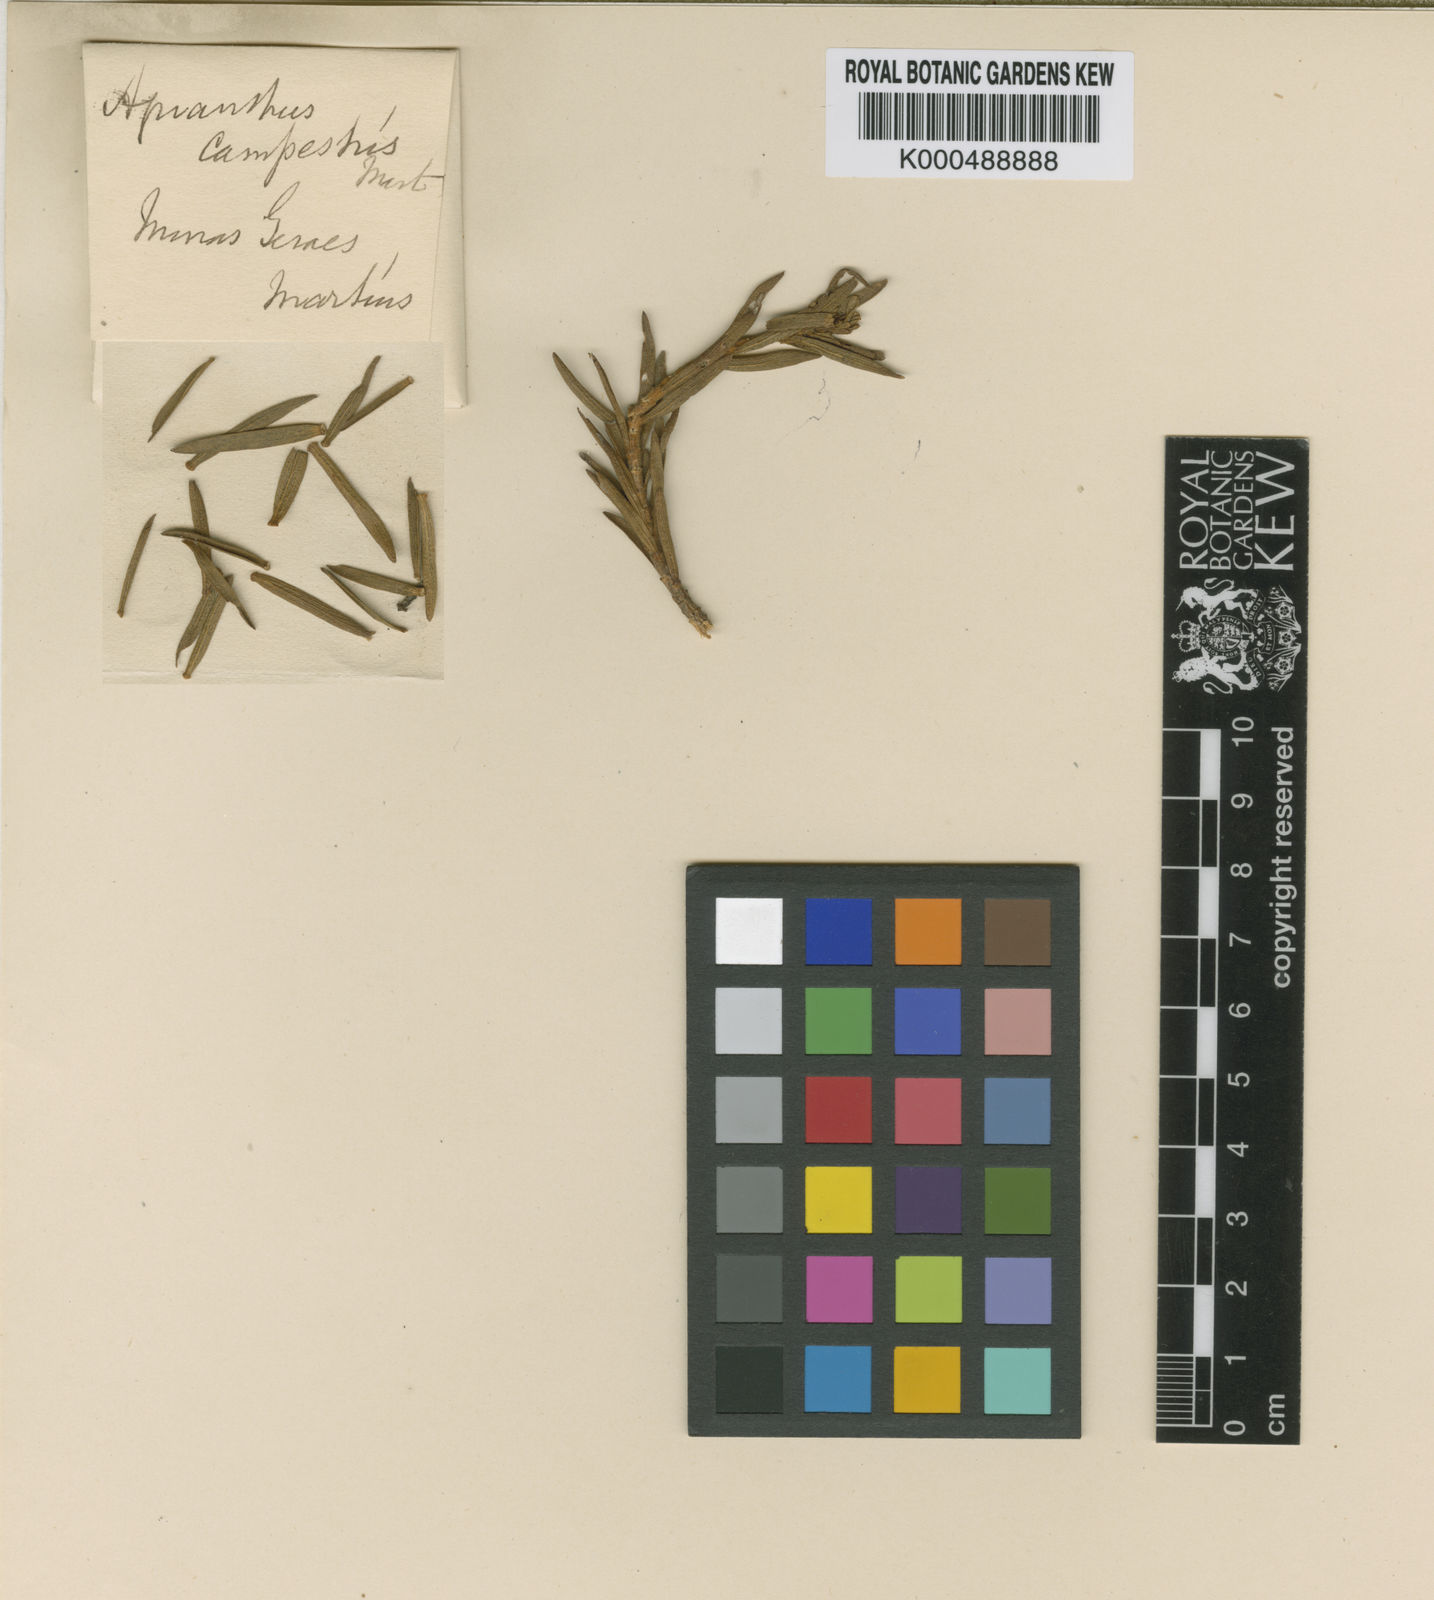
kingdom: Plantae
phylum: Tracheophyta
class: Magnoliopsida
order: Asterales
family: Asteraceae
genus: Agrianthus
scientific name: Agrianthus
